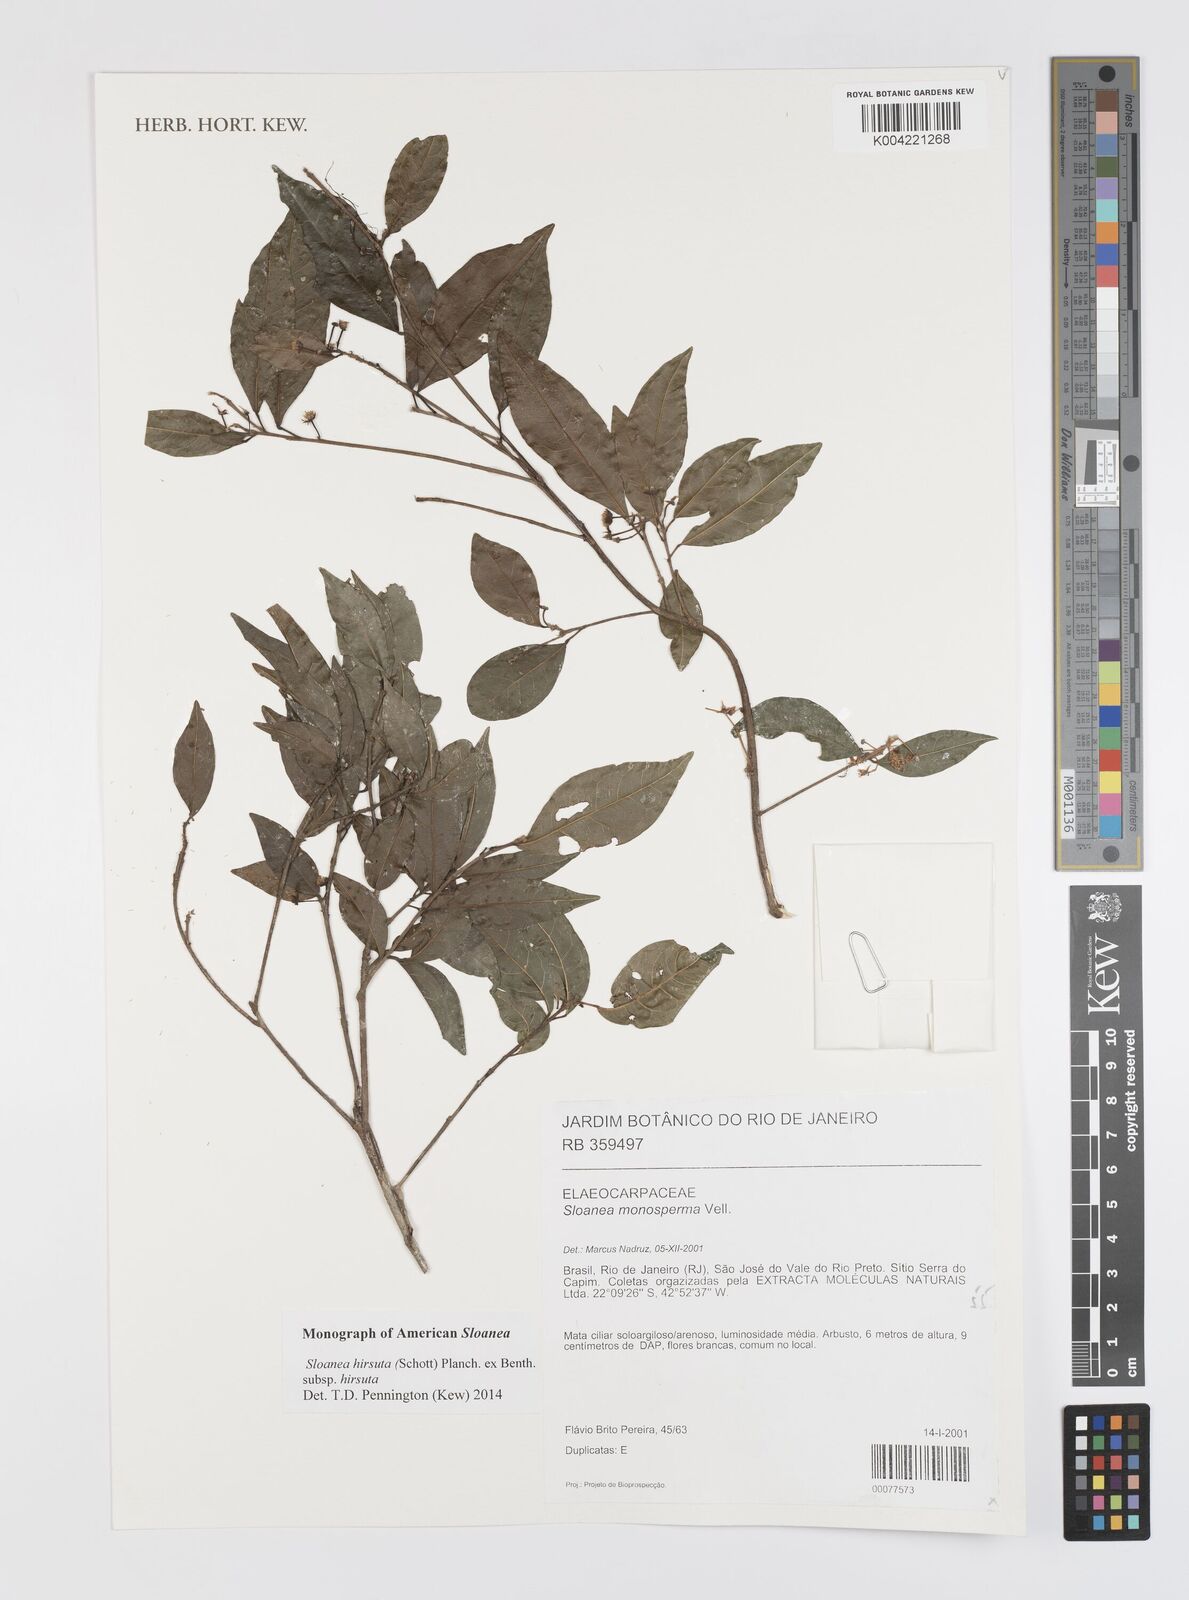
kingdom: Plantae
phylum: Tracheophyta
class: Magnoliopsida
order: Oxalidales
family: Elaeocarpaceae
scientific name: Elaeocarpaceae
